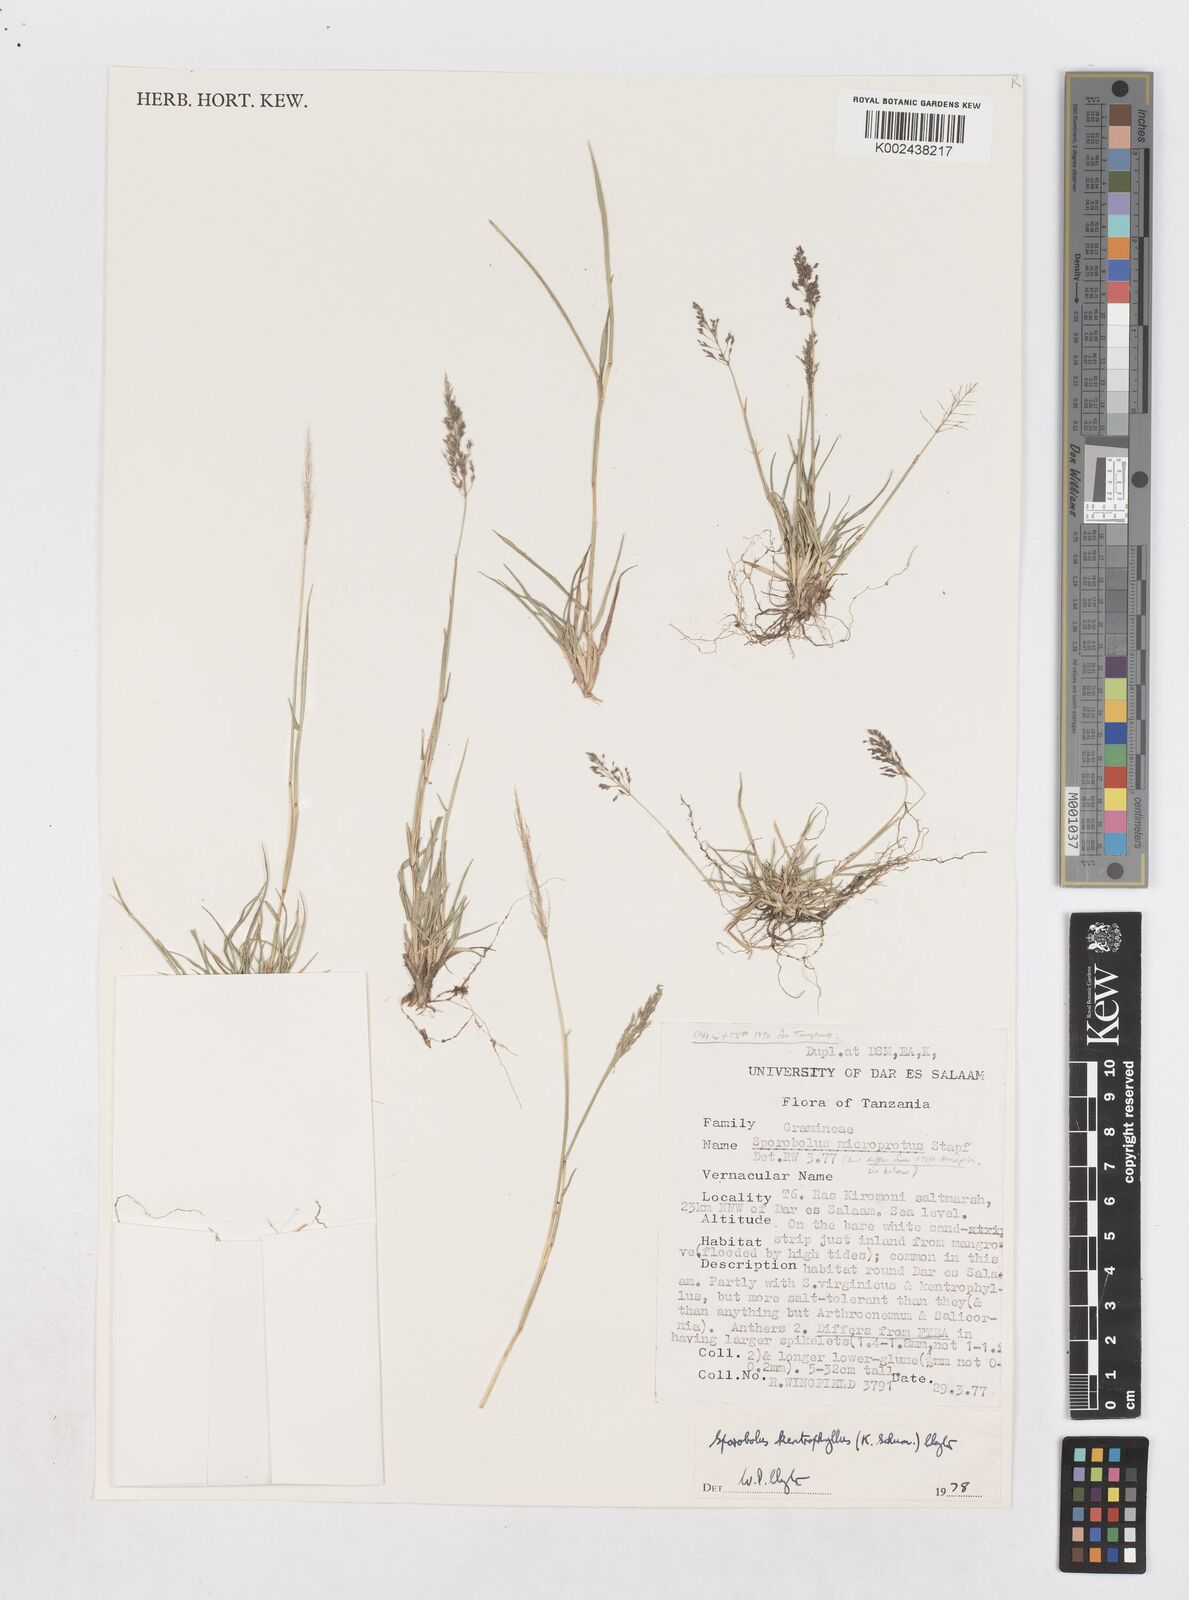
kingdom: Plantae
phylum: Tracheophyta
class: Liliopsida
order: Poales
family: Poaceae
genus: Sporobolus
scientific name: Sporobolus ioclados
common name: Pan dropseed
